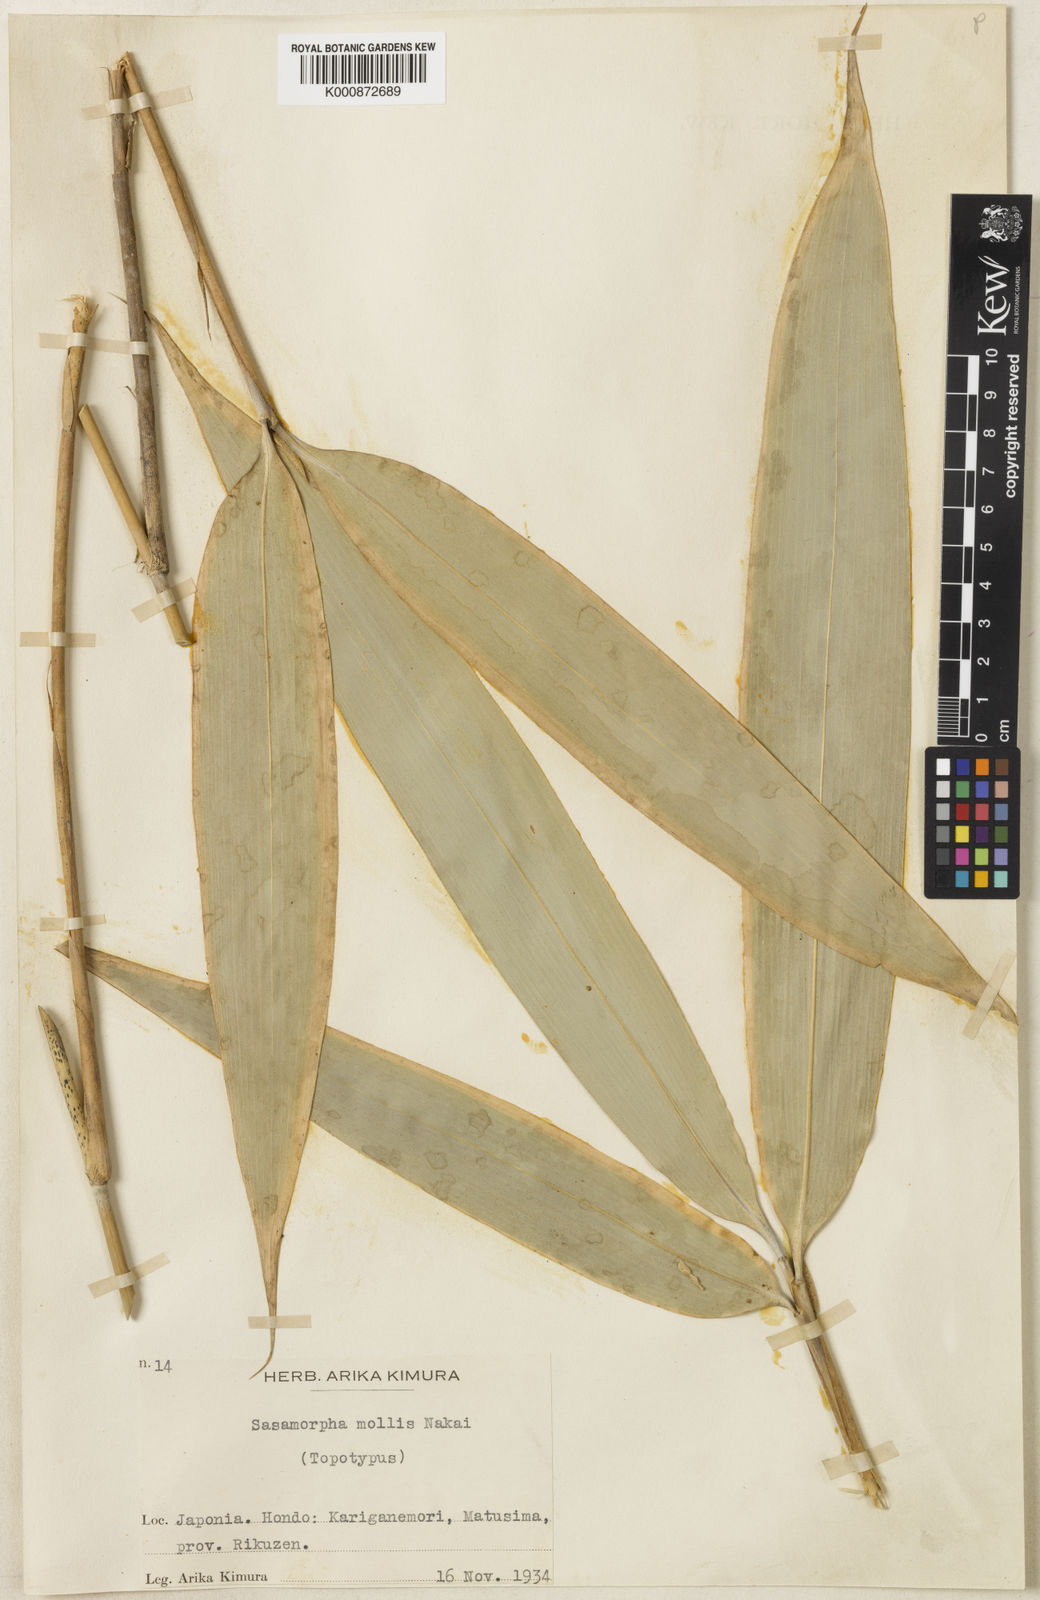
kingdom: Plantae
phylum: Tracheophyta
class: Liliopsida
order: Poales
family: Poaceae
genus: Sasa
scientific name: Sasa chartacea
